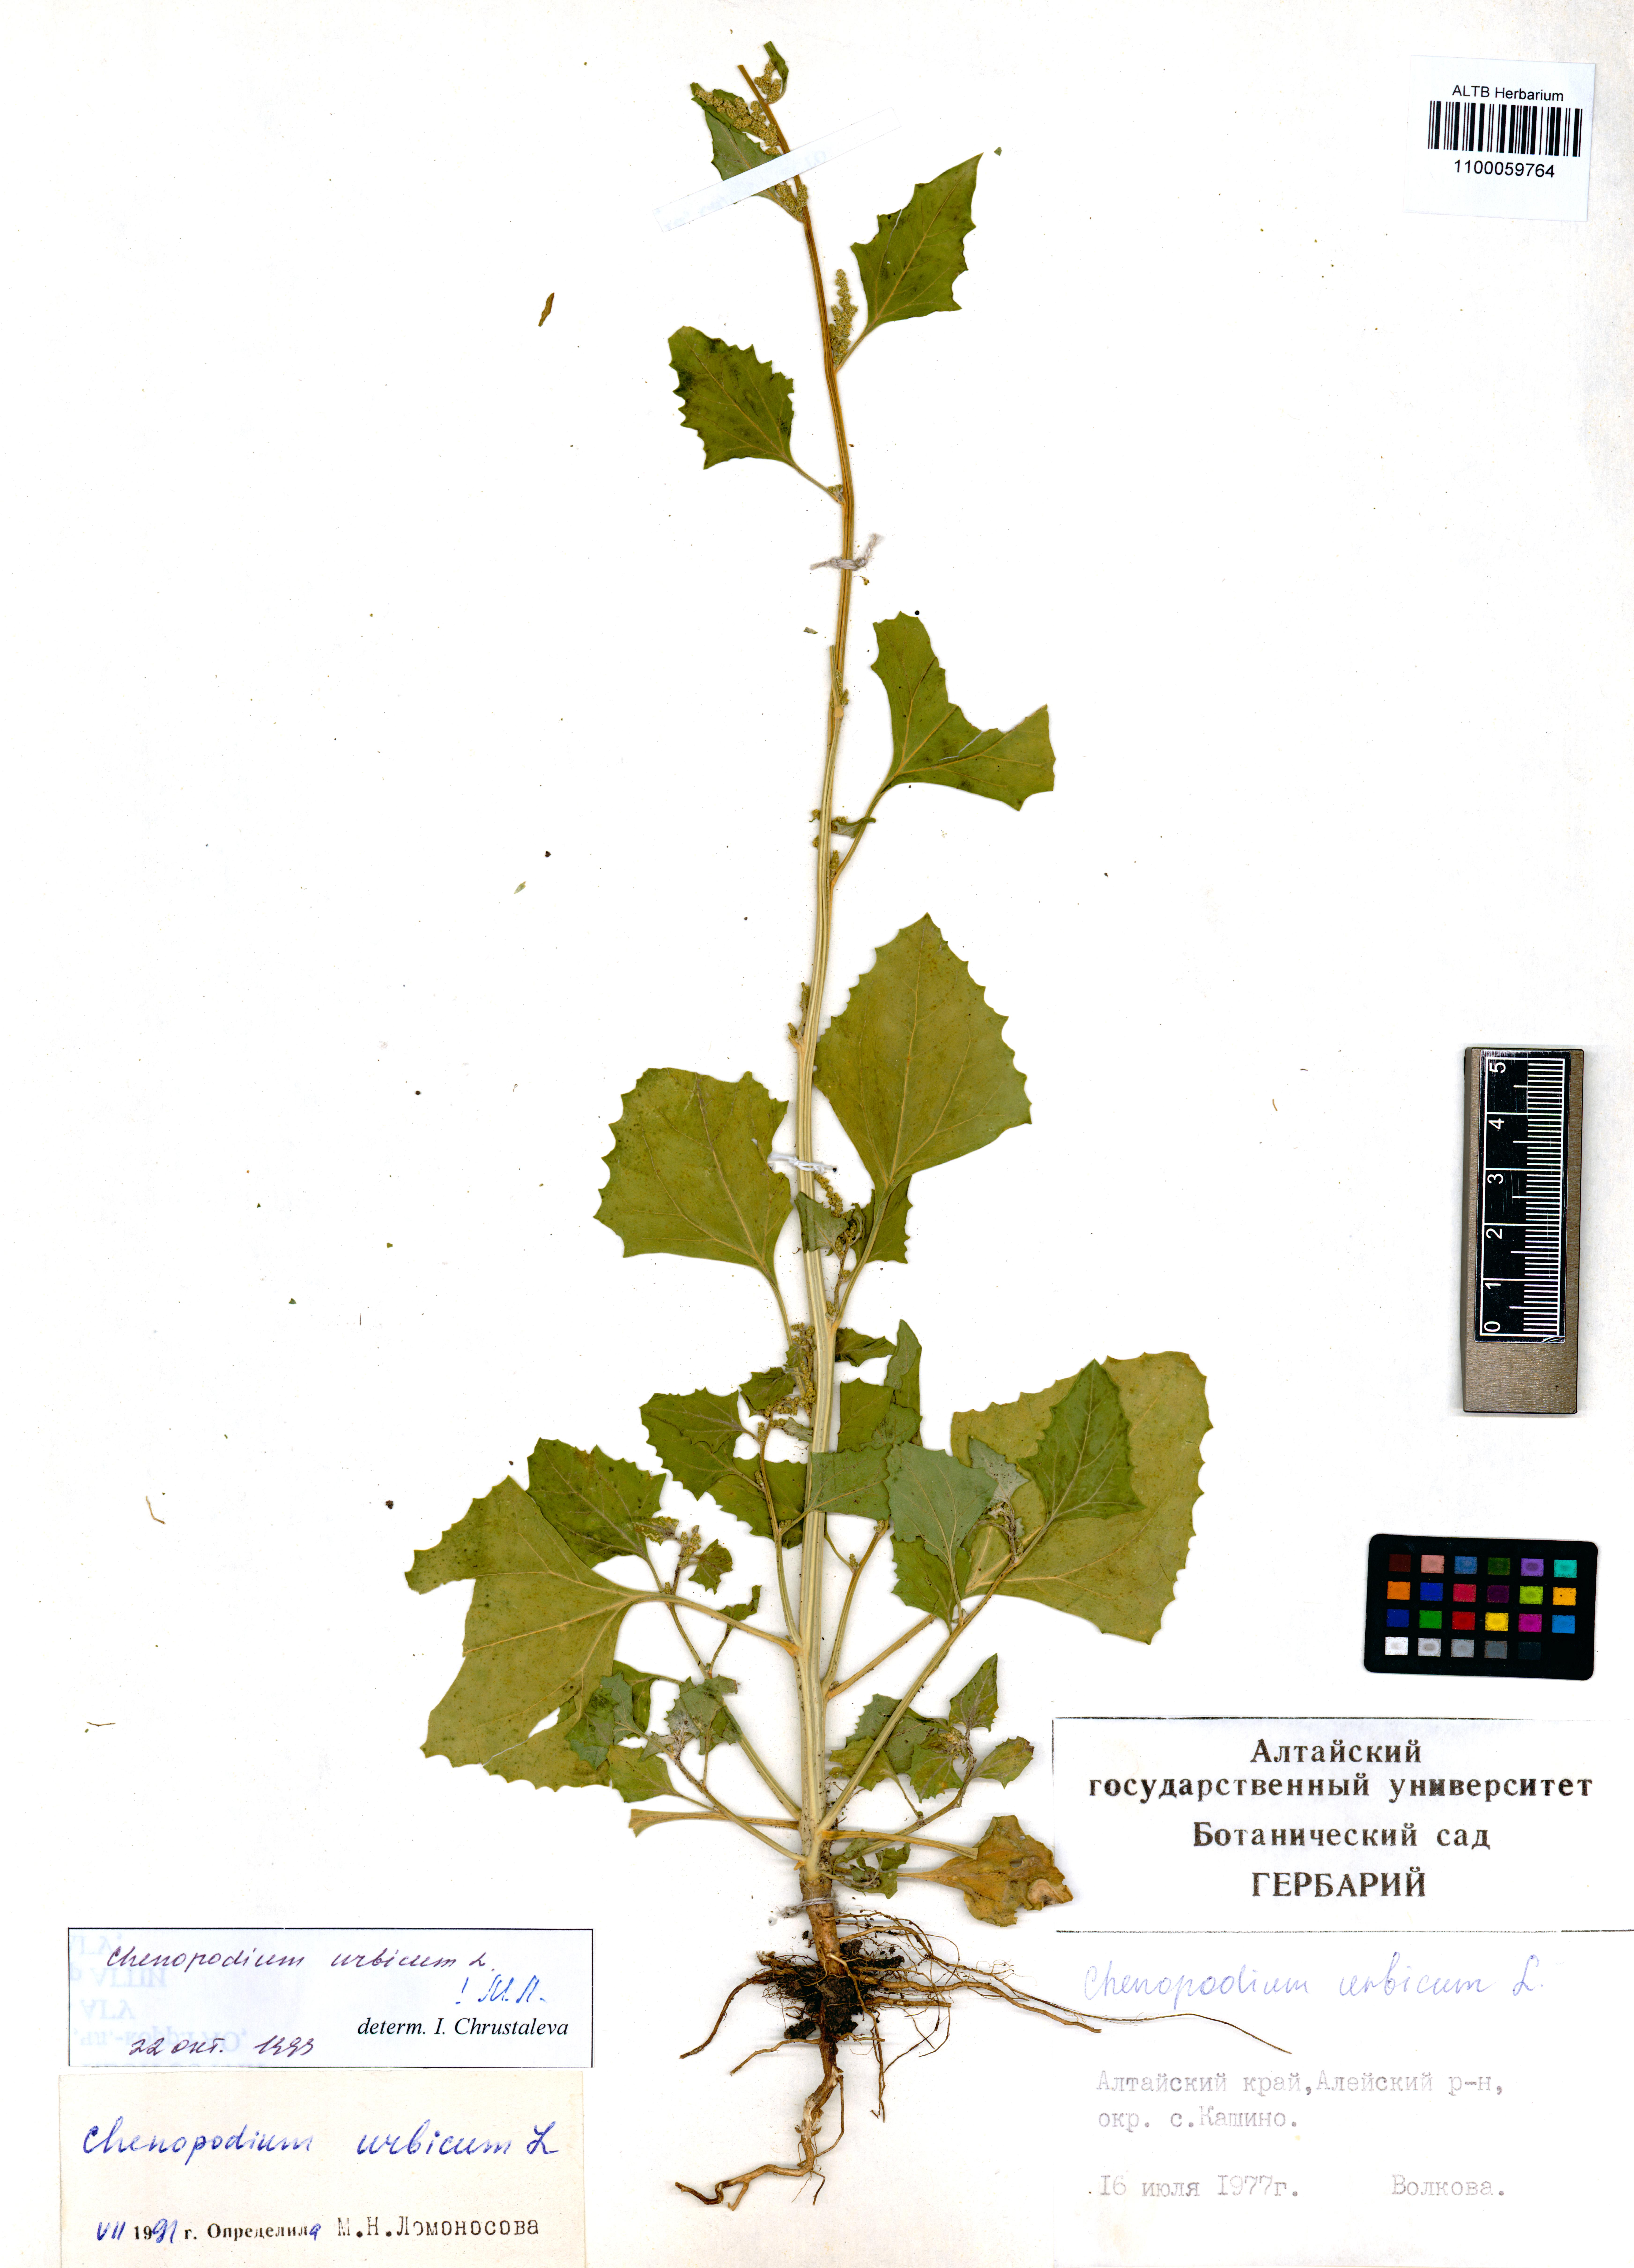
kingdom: Plantae
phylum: Tracheophyta
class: Magnoliopsida
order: Caryophyllales
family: Amaranthaceae
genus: Oxybasis
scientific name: Oxybasis urbica
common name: City goosefoot
